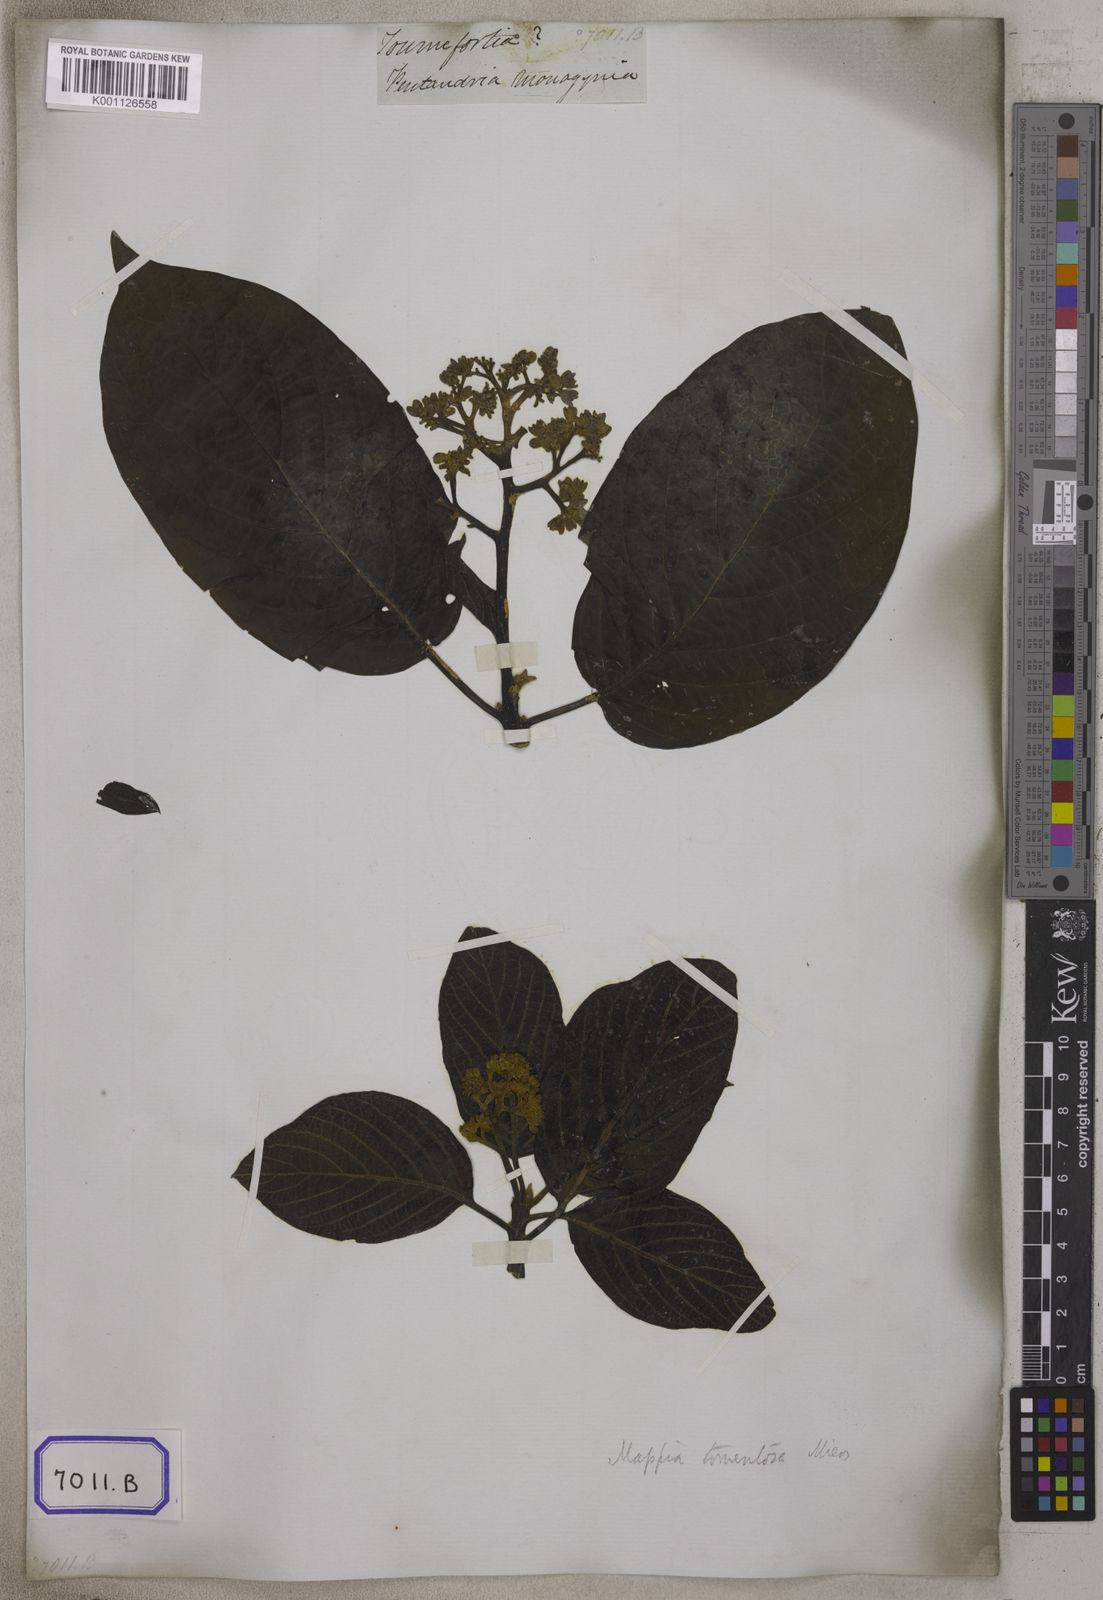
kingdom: Plantae
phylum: Tracheophyta
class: Magnoliopsida
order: Boraginales
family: Ehretiaceae
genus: Ehretia
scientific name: Ehretia
